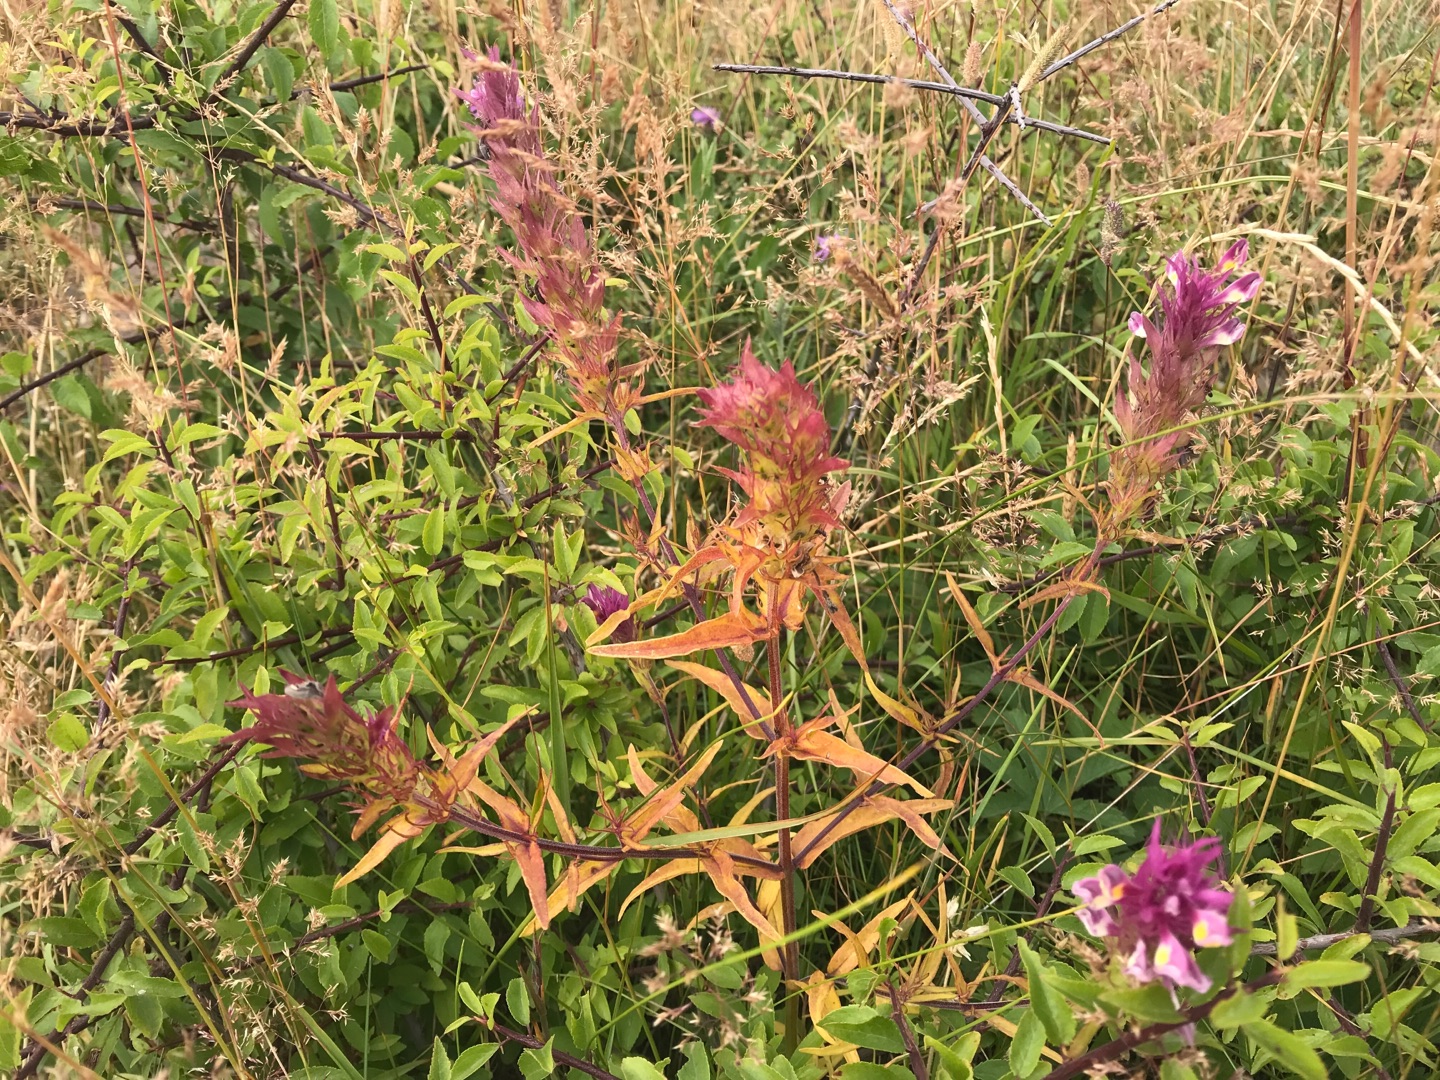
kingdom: Plantae
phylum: Tracheophyta
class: Magnoliopsida
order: Lamiales
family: Orobanchaceae
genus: Melampyrum
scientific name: Melampyrum arvense
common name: Ager-kohvede
